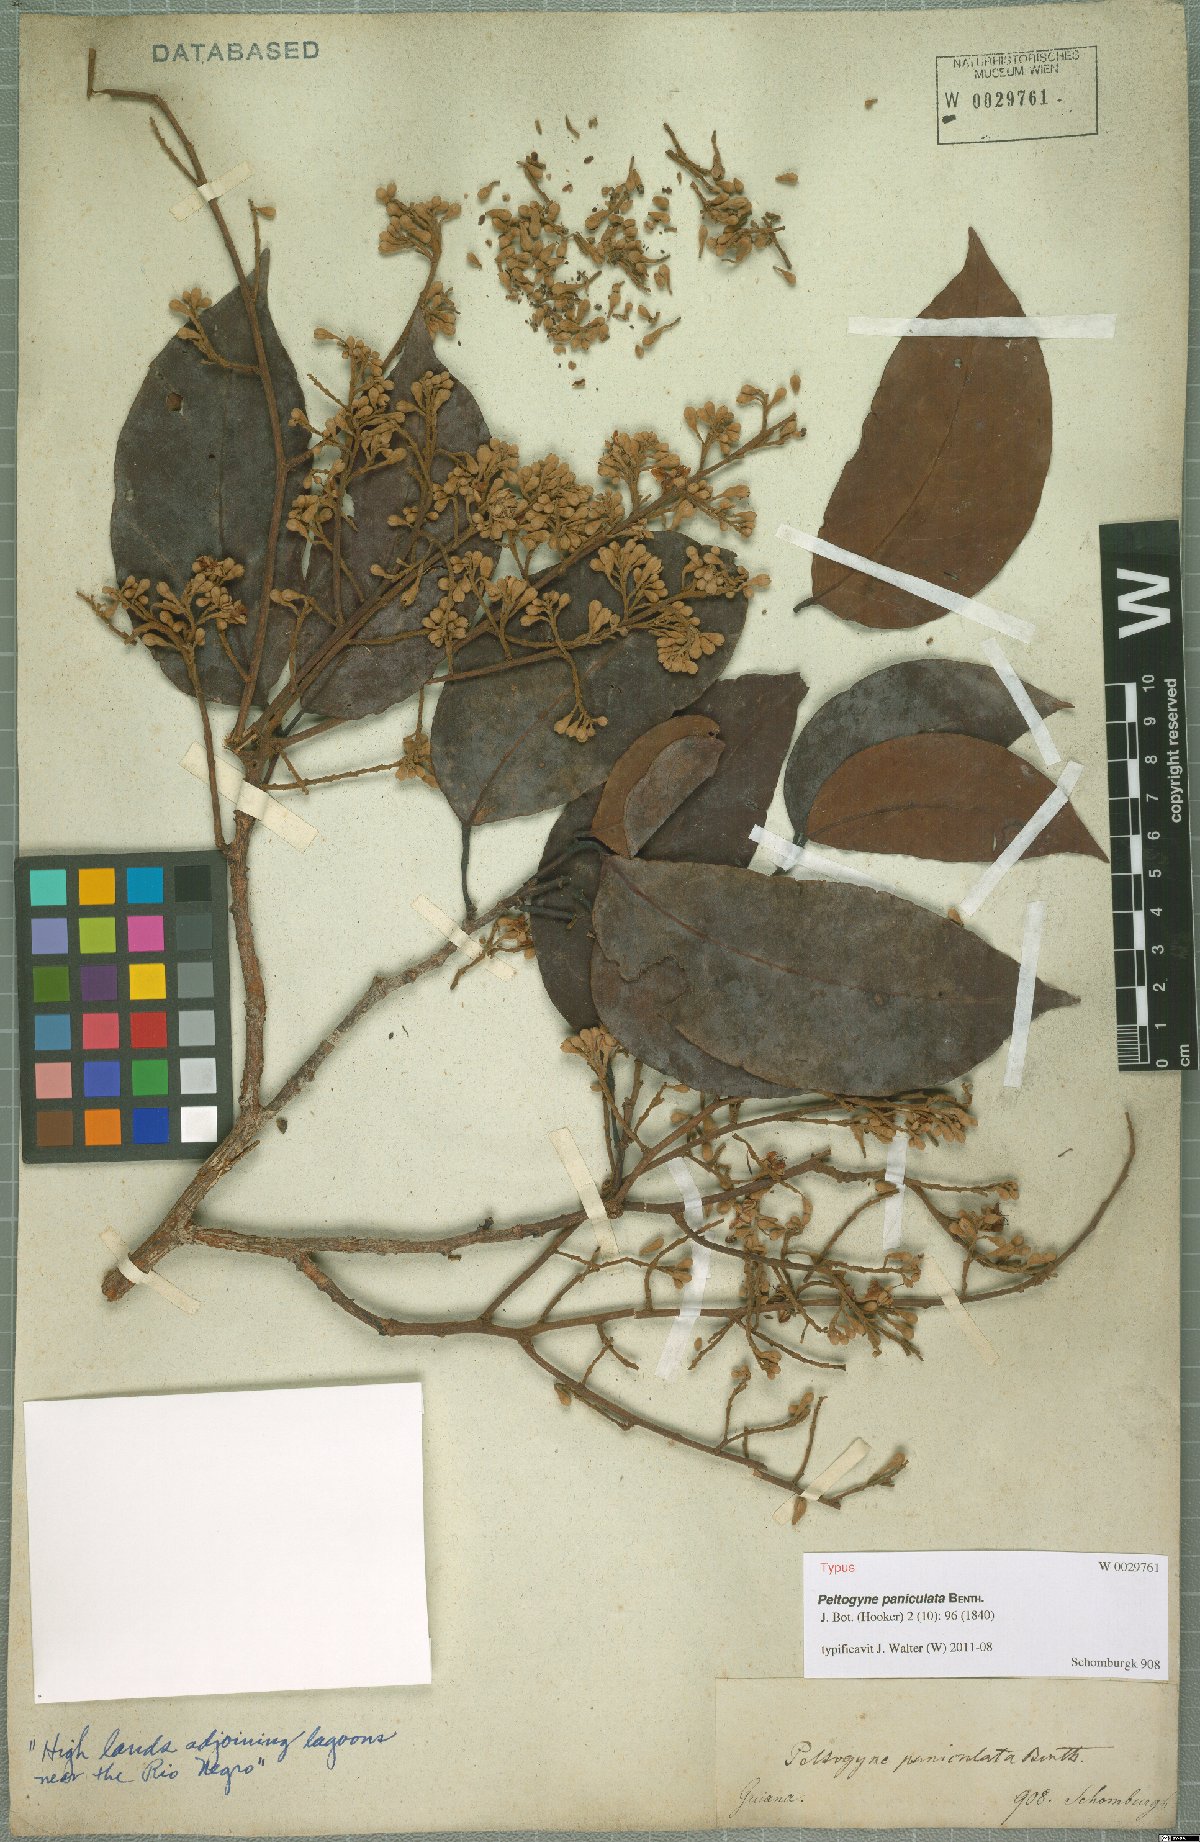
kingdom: Plantae
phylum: Tracheophyta
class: Magnoliopsida
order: Fabales
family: Fabaceae
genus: Peltogyne
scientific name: Peltogyne paniculata
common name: Purpleheart
